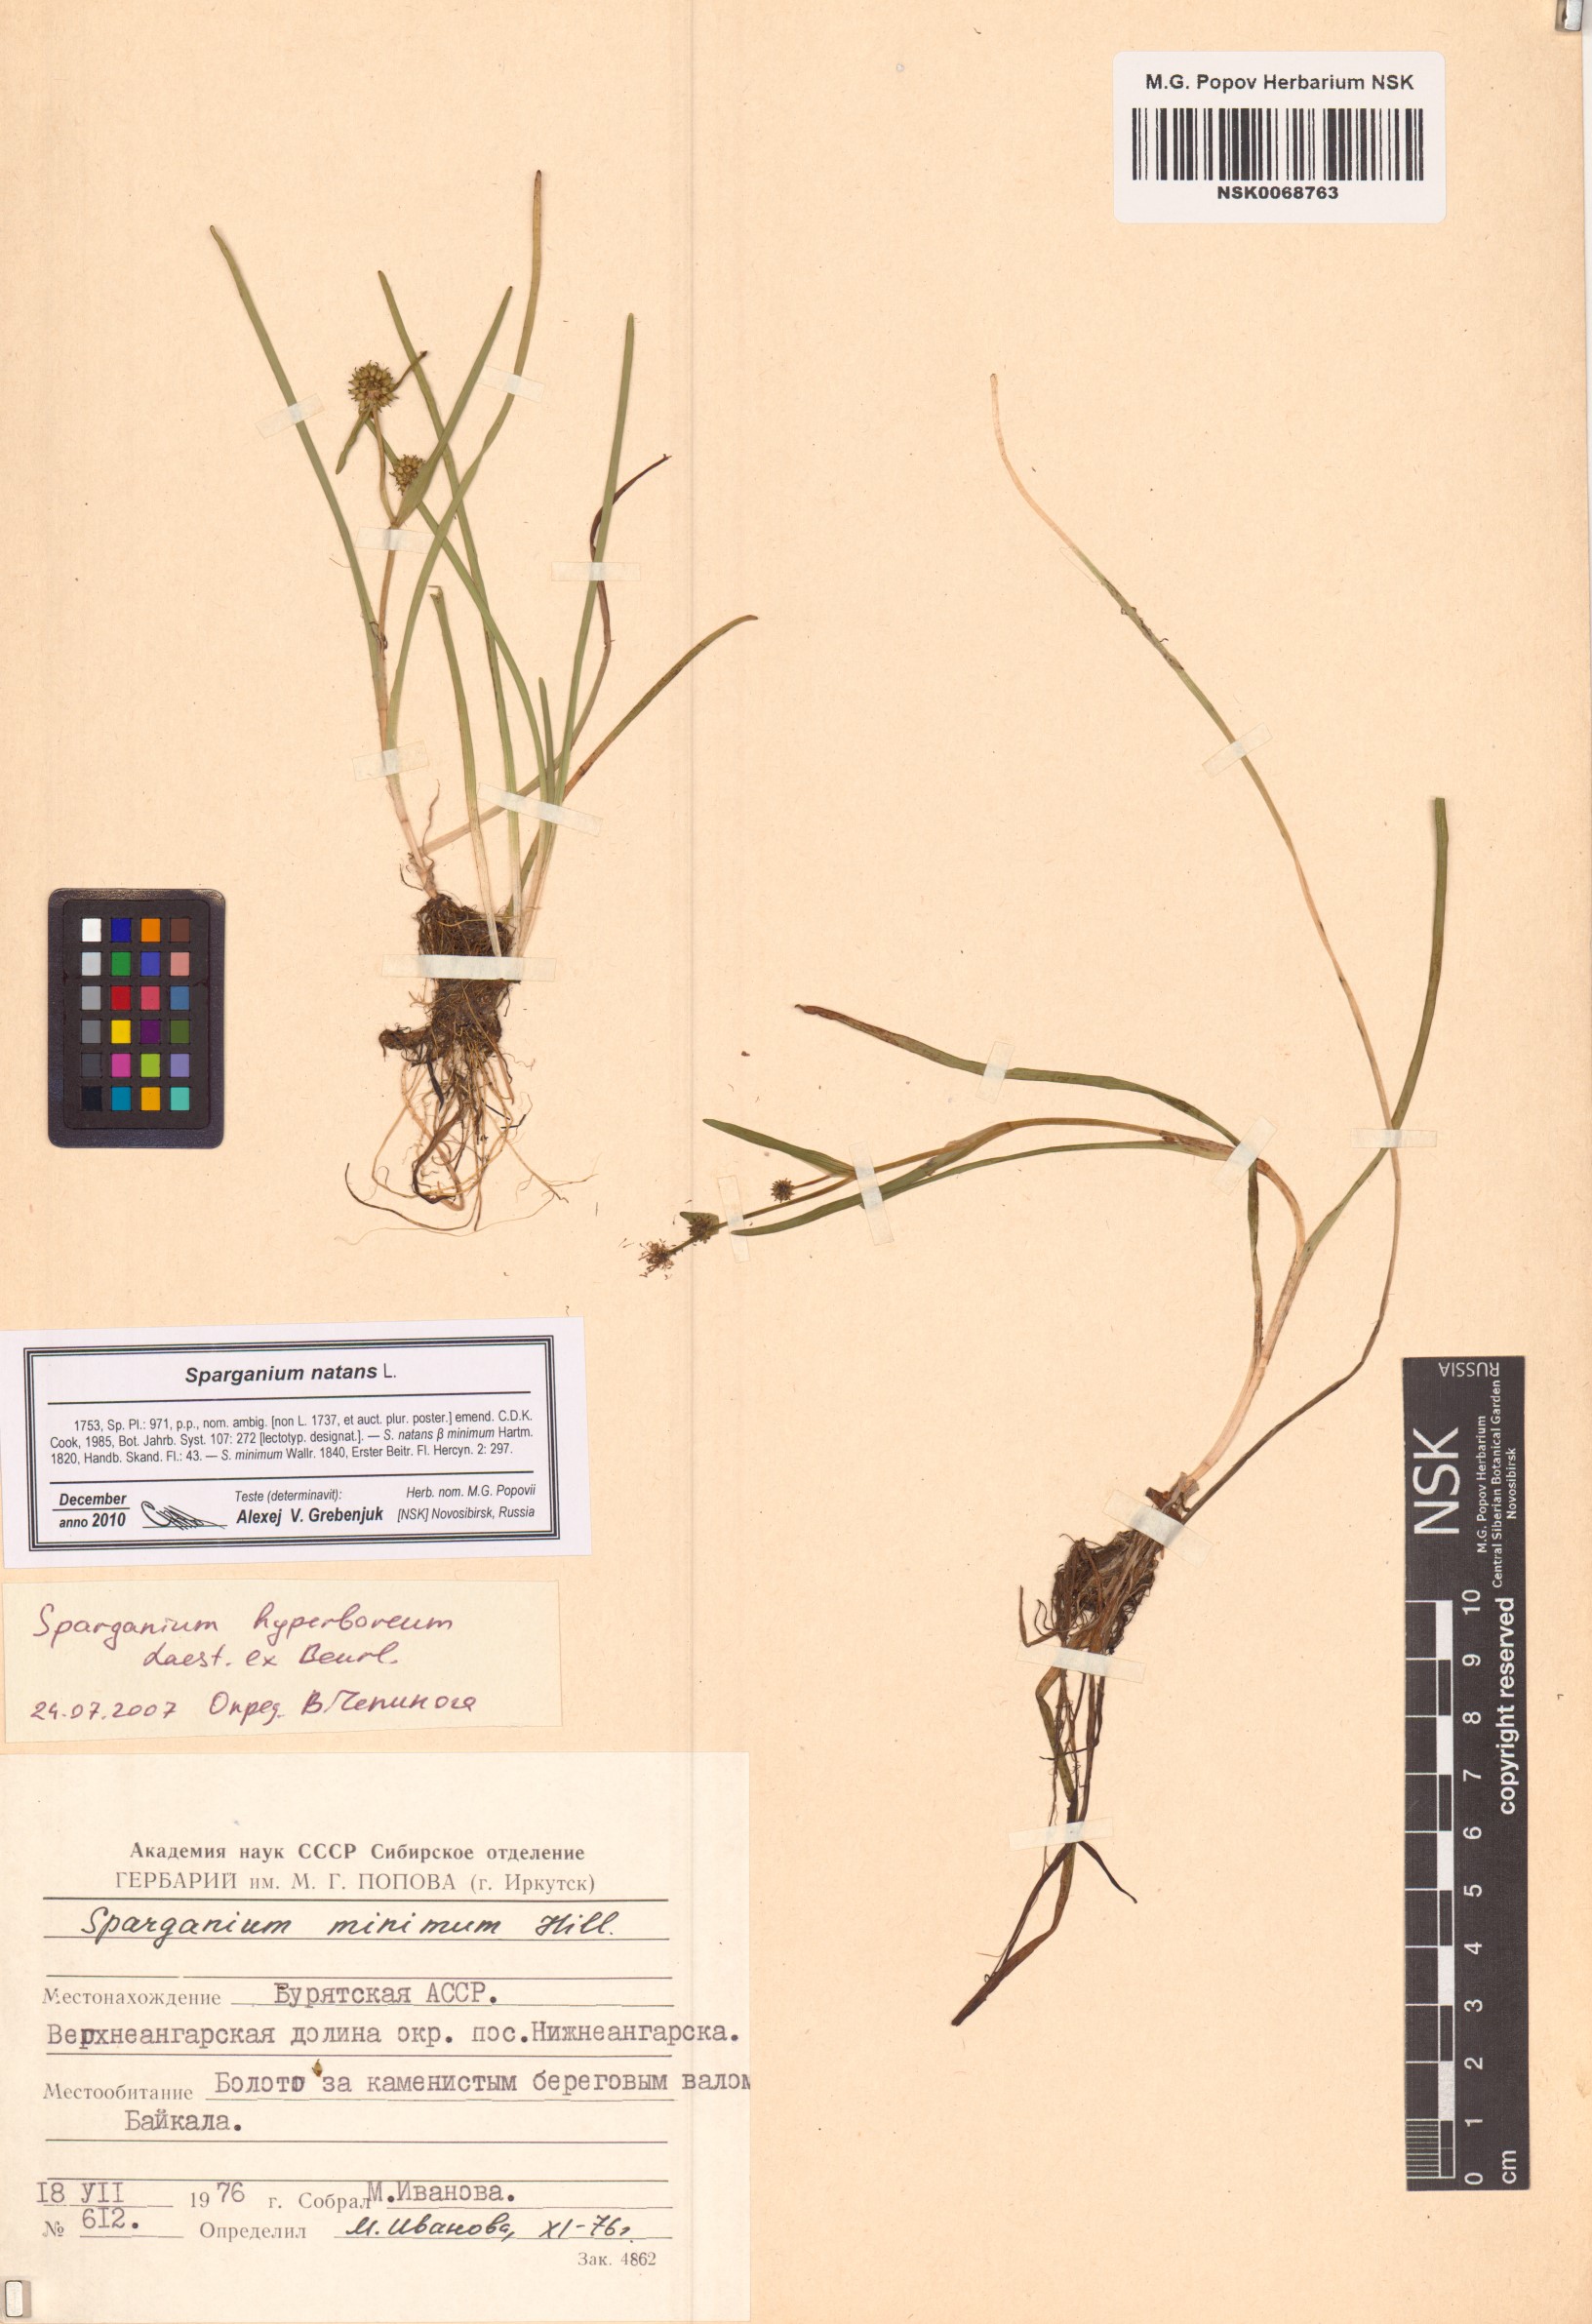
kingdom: Plantae
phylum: Tracheophyta
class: Liliopsida
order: Poales
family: Typhaceae
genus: Sparganium
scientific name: Sparganium natans
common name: Least bur-reed
